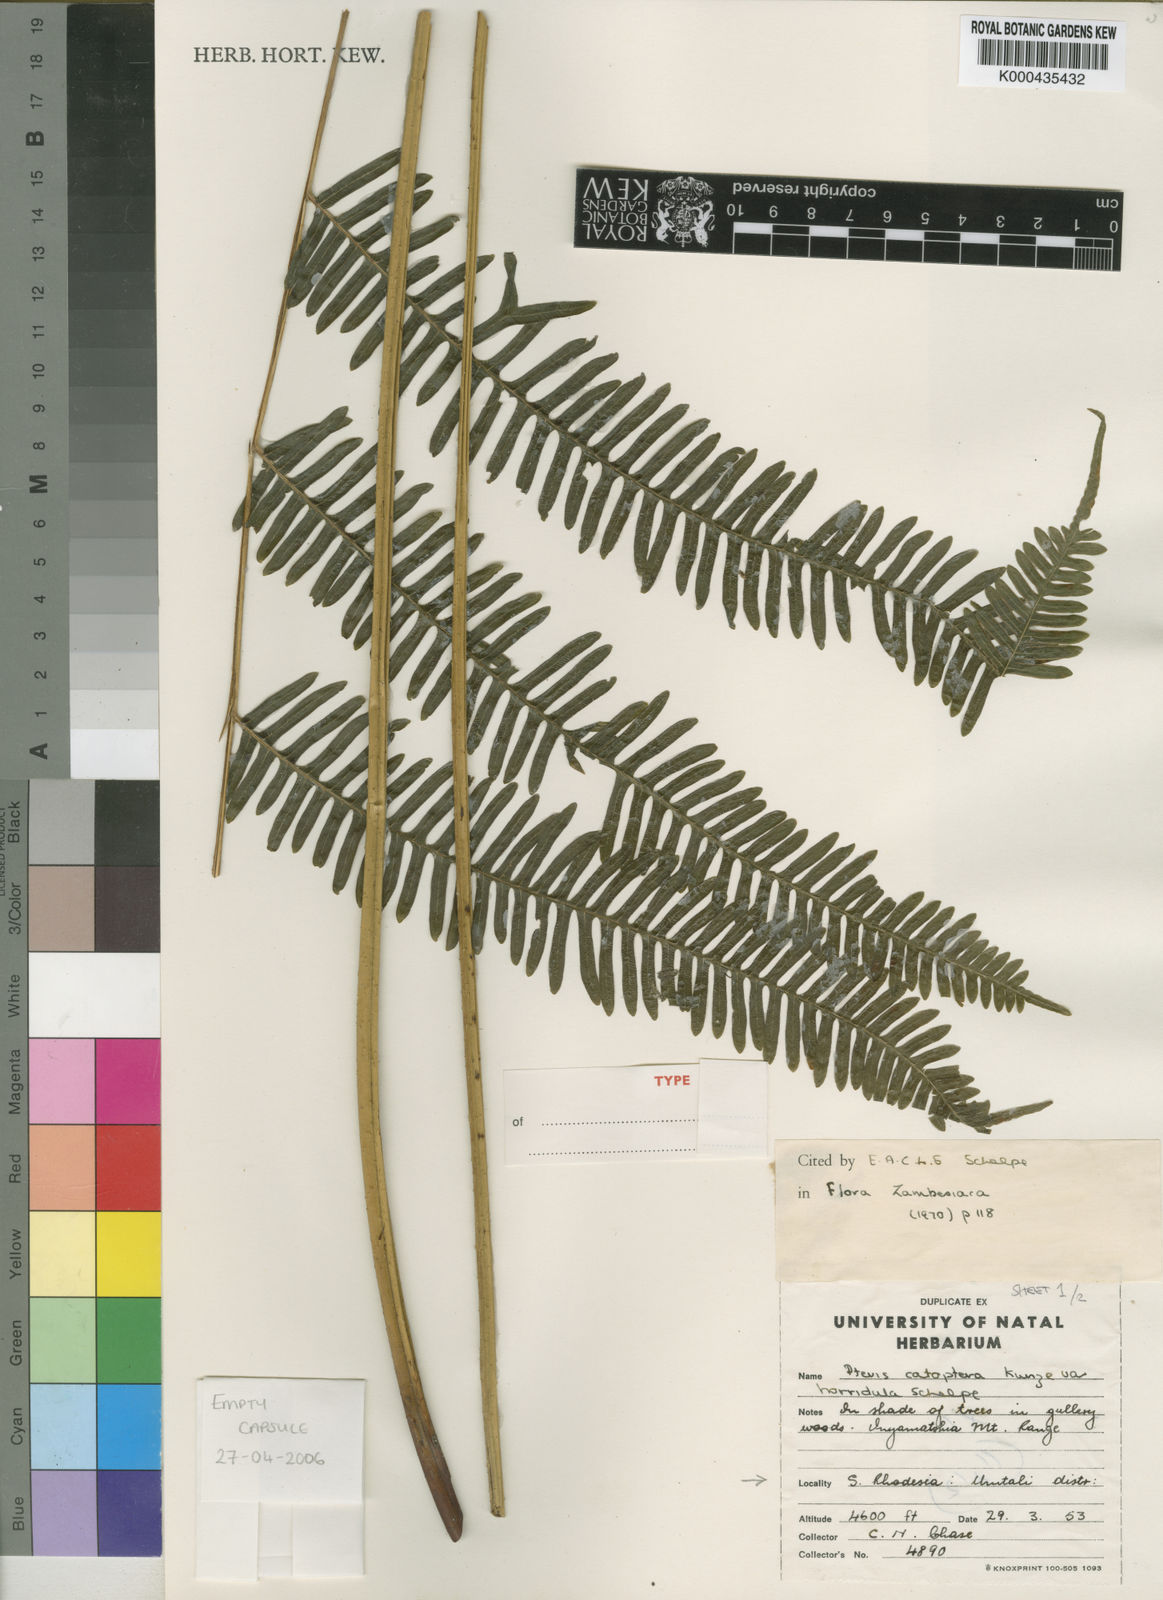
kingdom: Plantae
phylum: Tracheophyta
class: Polypodiopsida
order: Polypodiales
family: Pteridaceae
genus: Pteris
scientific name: Pteris catoptera
